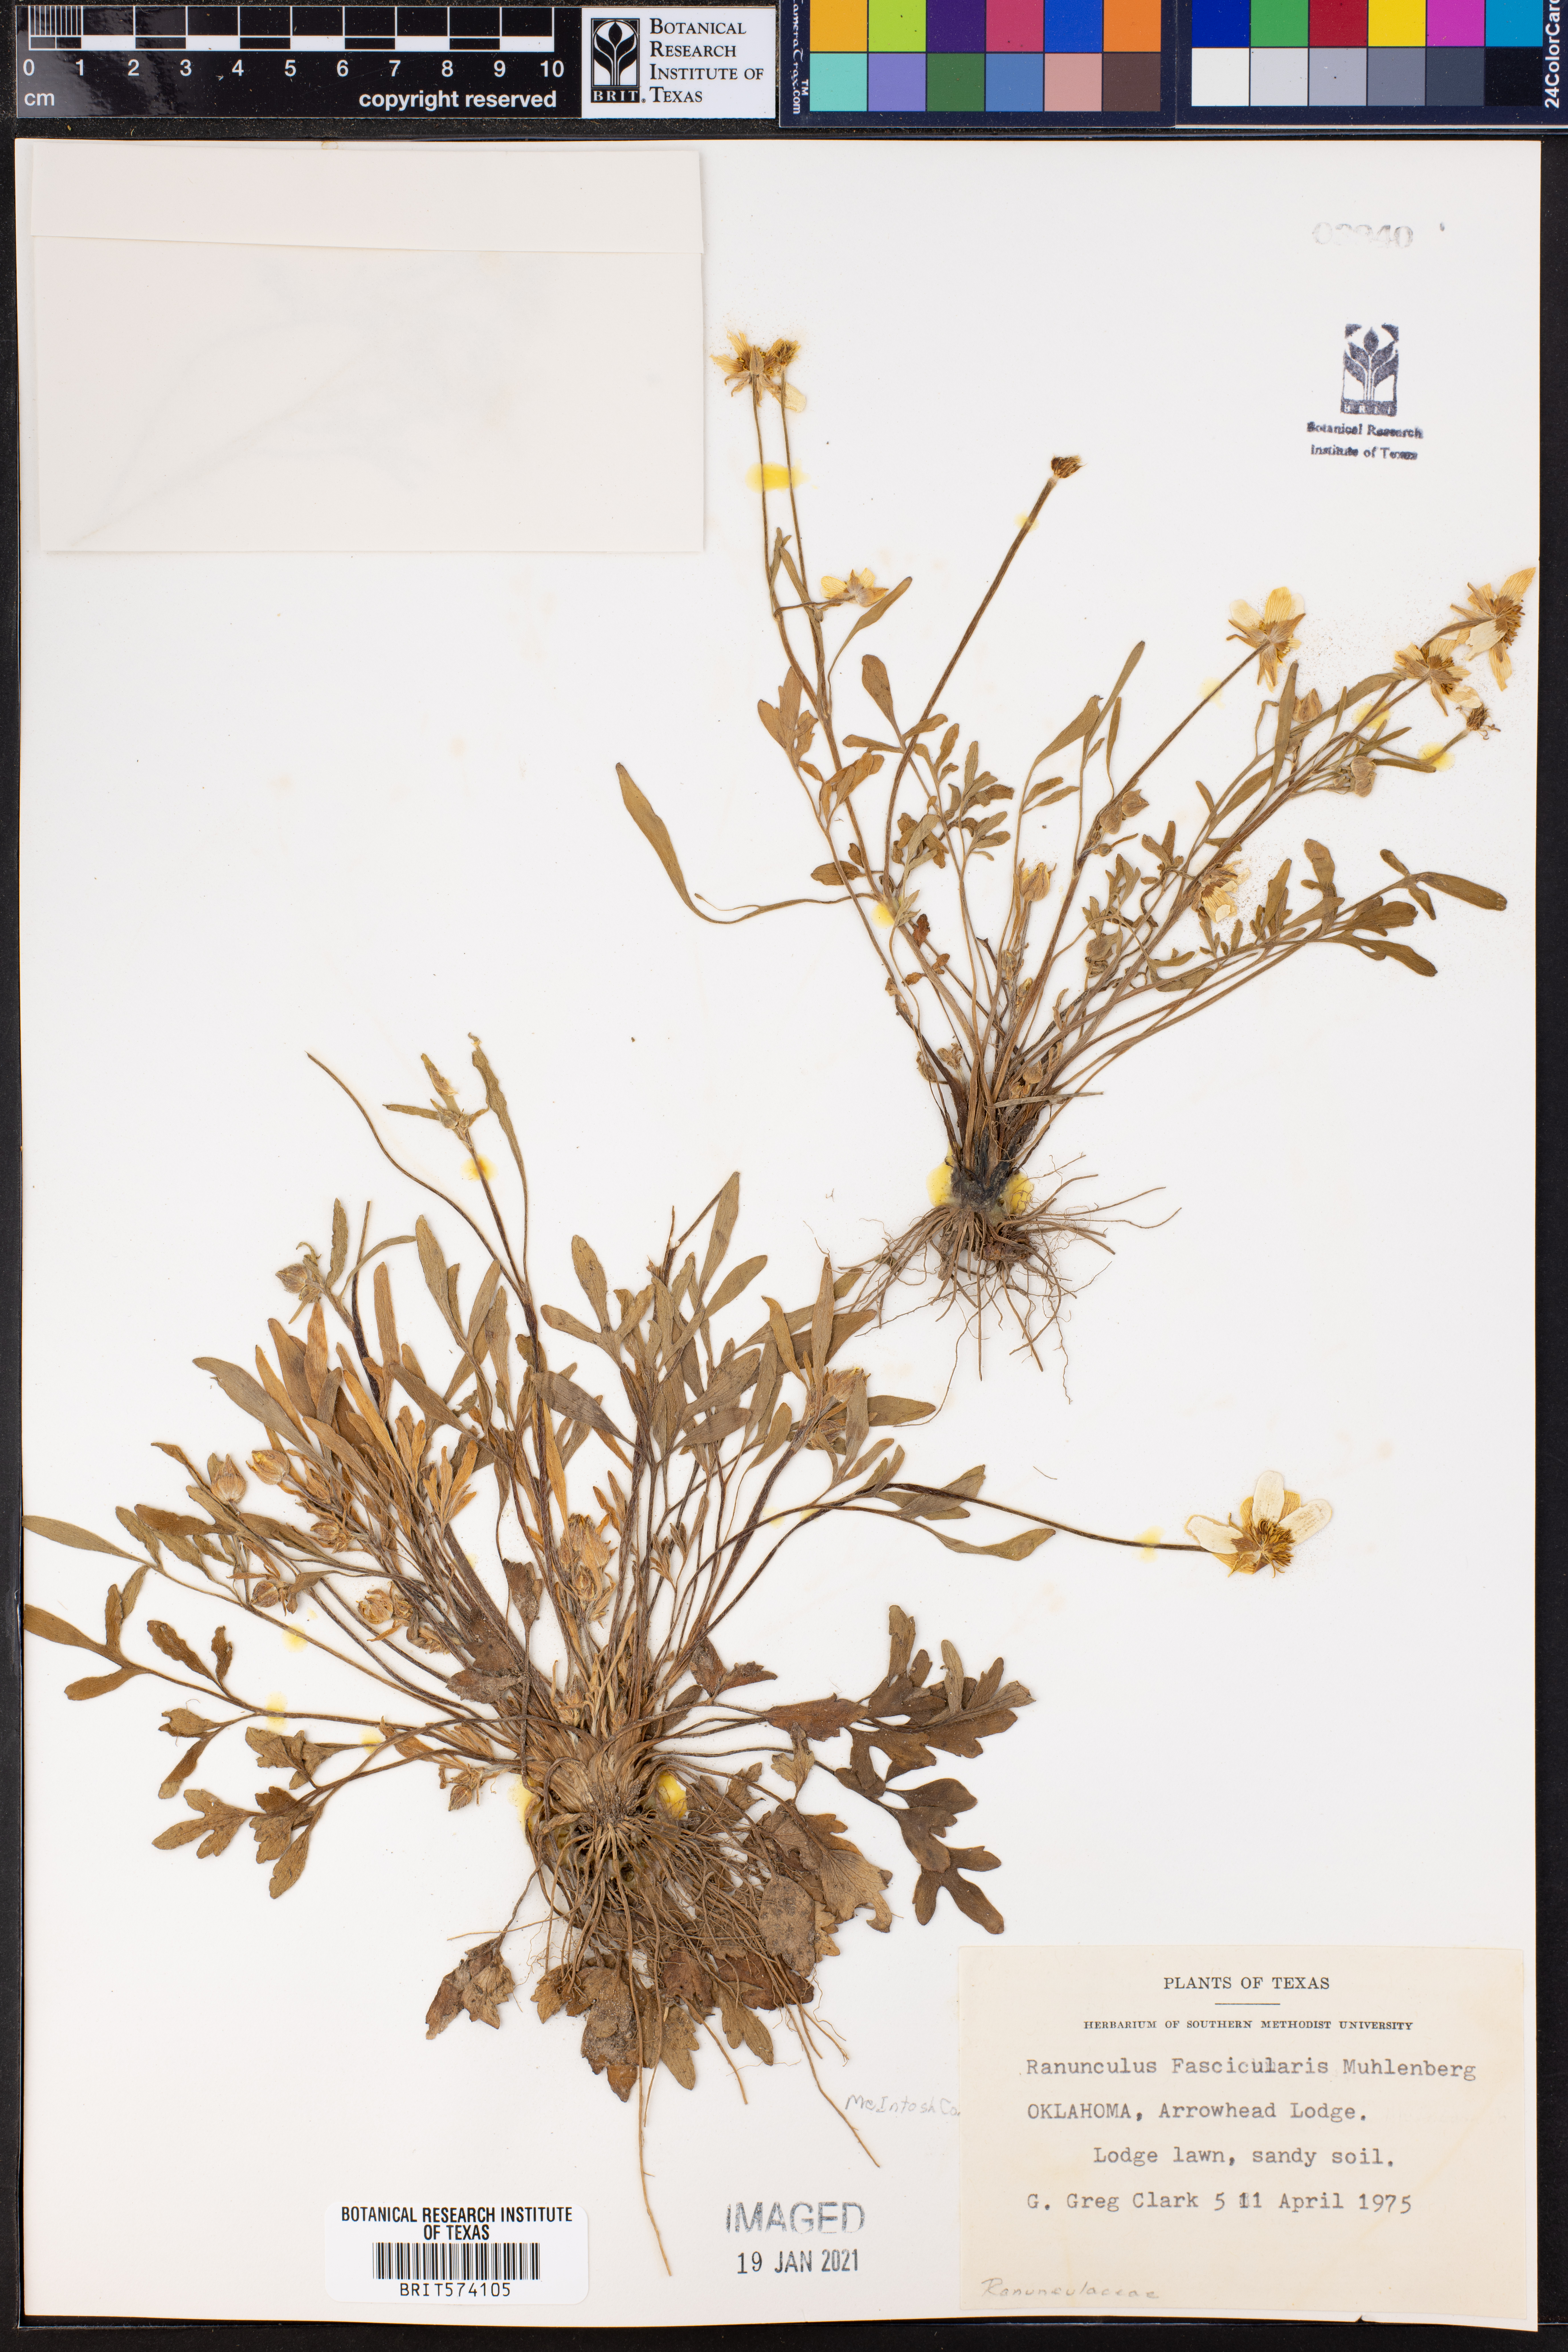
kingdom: Plantae
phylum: Tracheophyta
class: Magnoliopsida
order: Ranunculales
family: Ranunculaceae
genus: Ranunculus
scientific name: Ranunculus fascicularis
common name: Early buttercup
